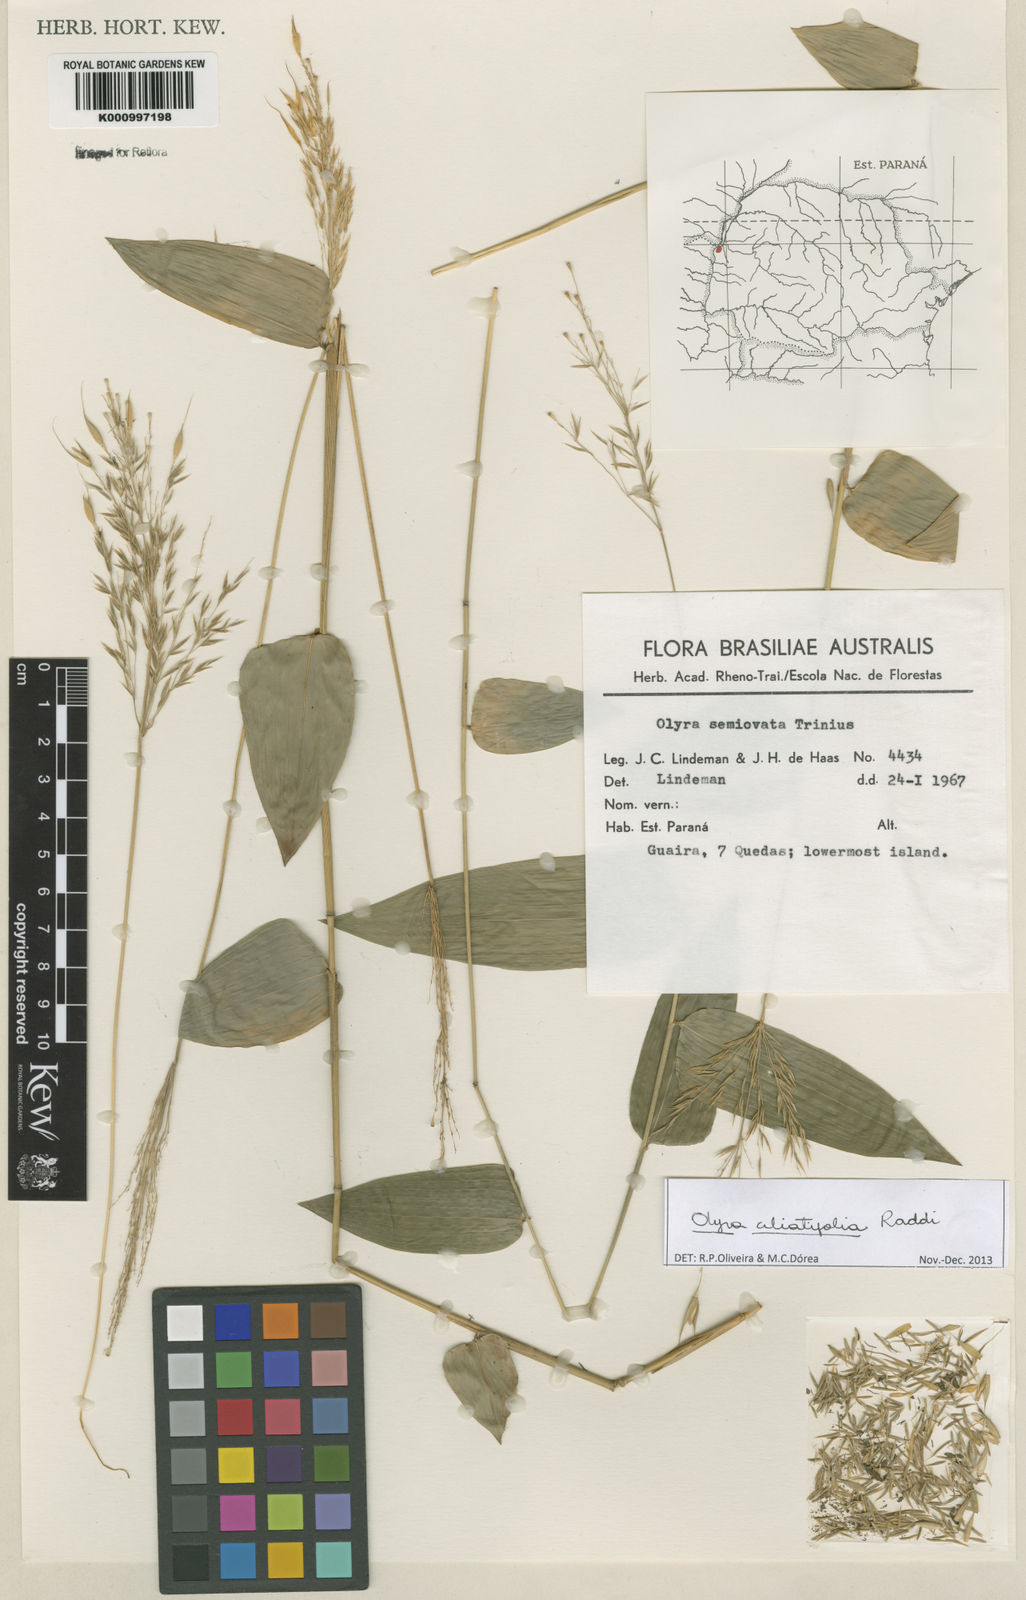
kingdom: Plantae
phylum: Tracheophyta
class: Liliopsida
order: Poales
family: Poaceae
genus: Olyra
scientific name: Olyra ciliatifolia
